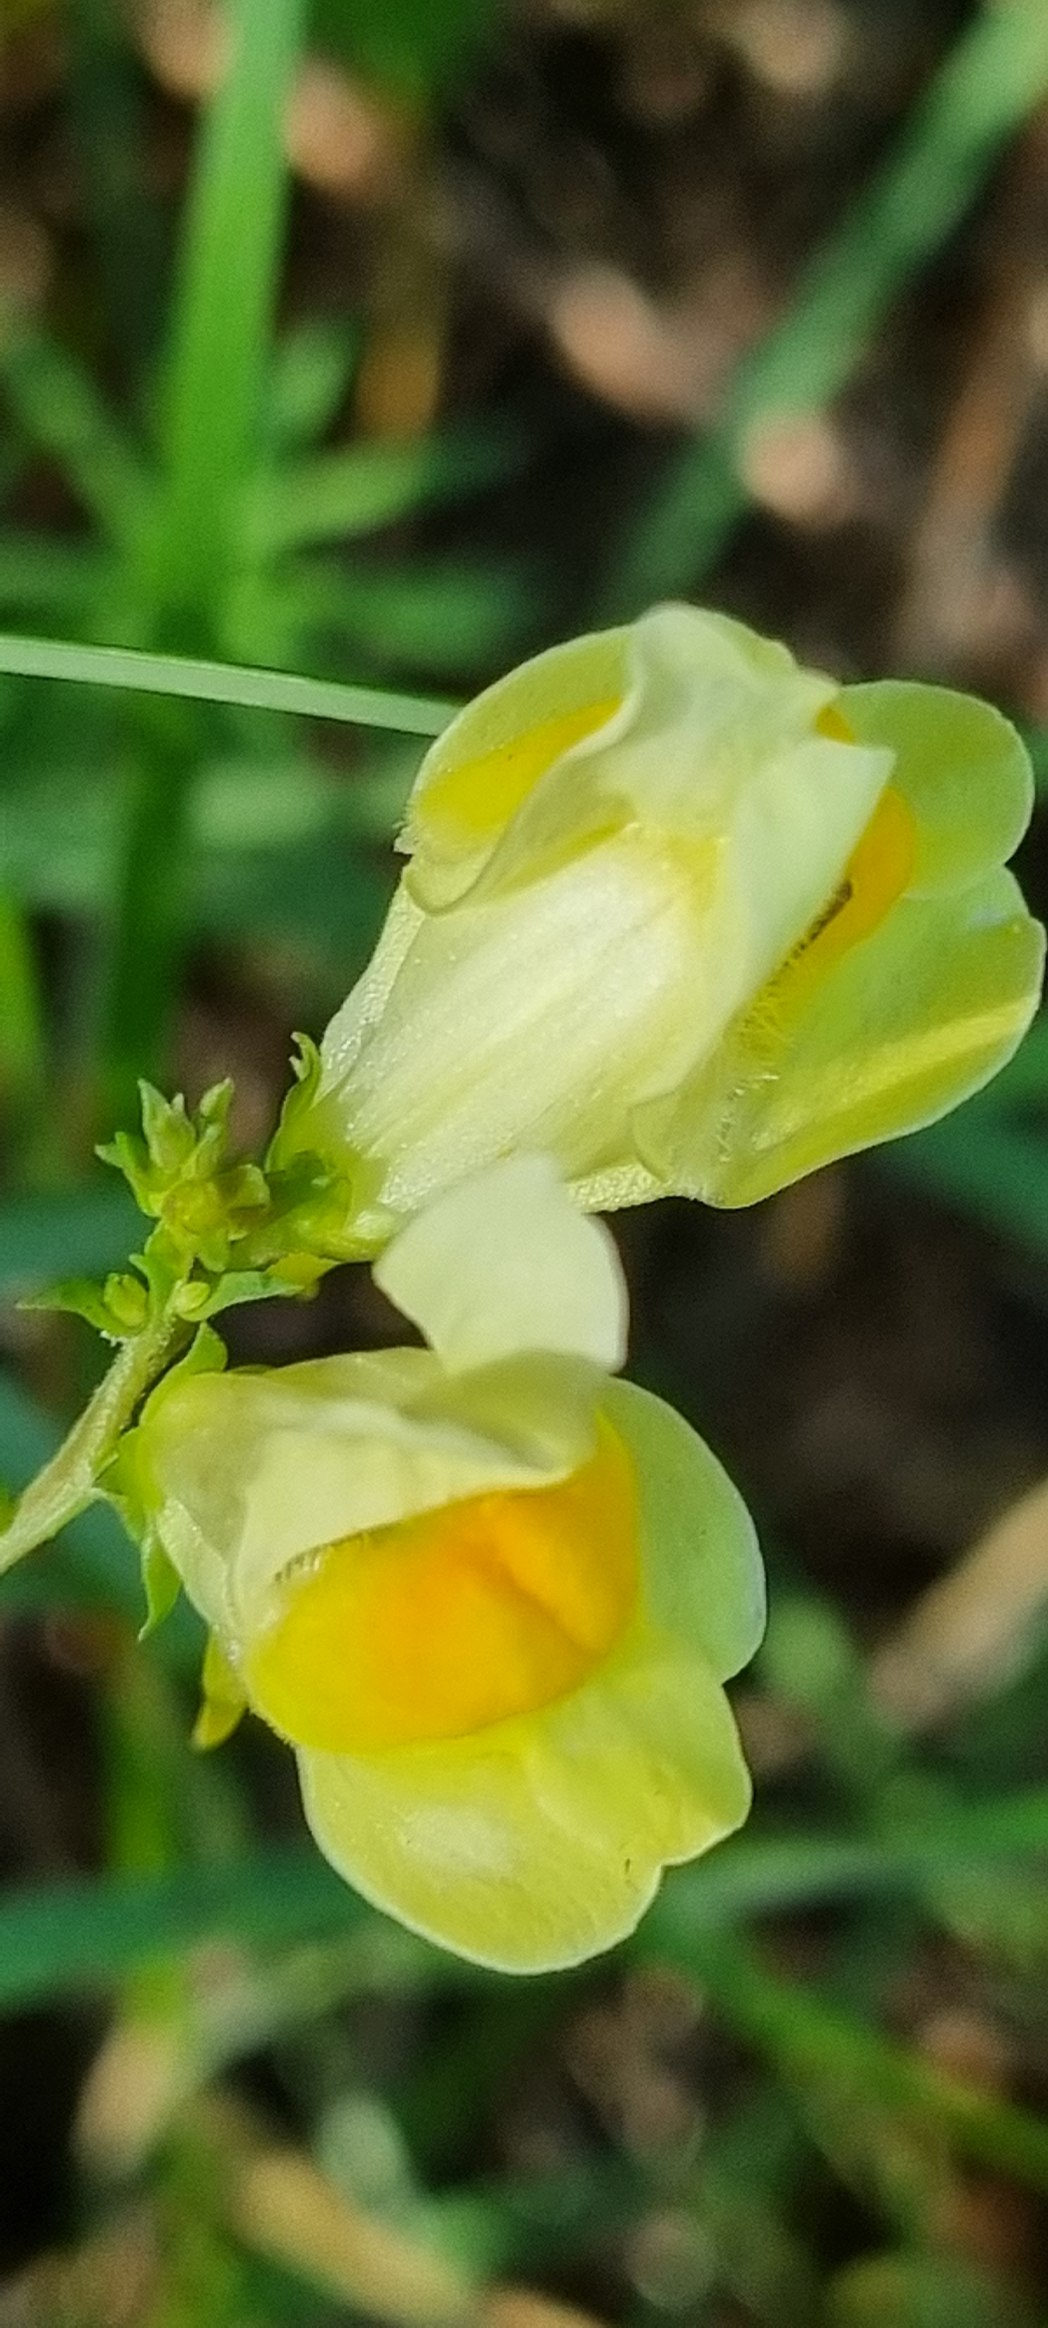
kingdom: Plantae
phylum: Tracheophyta
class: Magnoliopsida
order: Lamiales
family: Plantaginaceae
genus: Linaria
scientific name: Linaria vulgaris
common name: Almindelig torskemund
